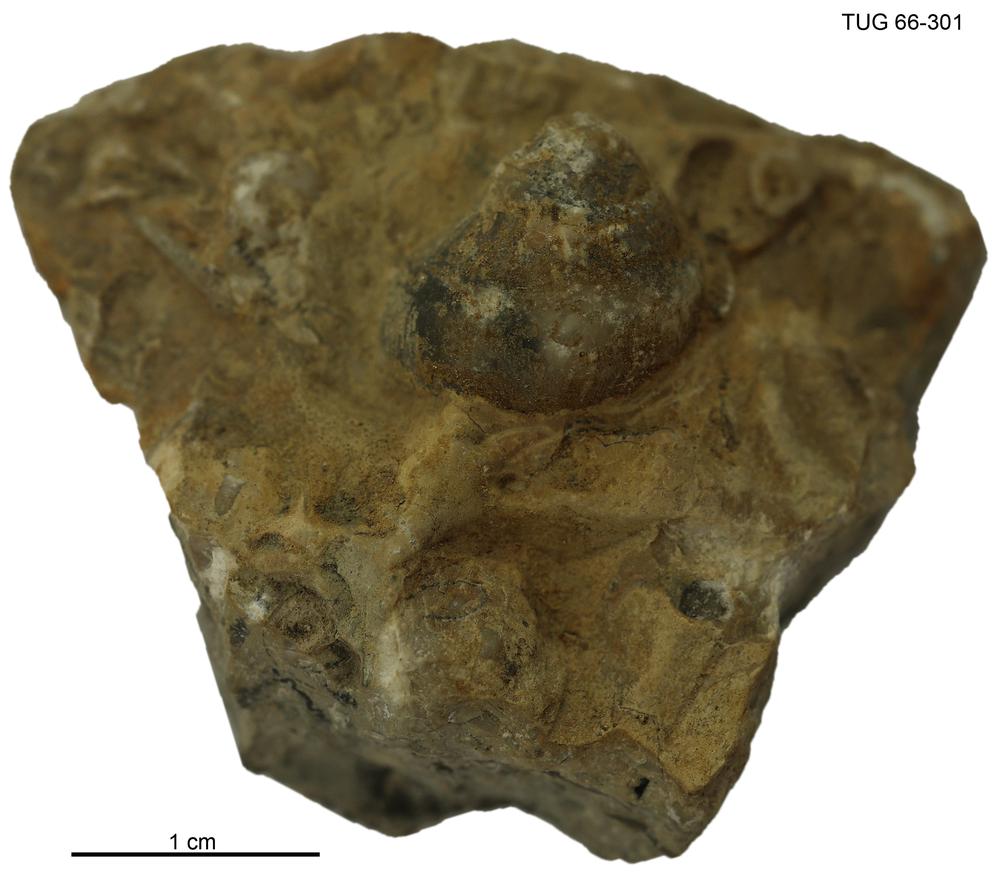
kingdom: Animalia
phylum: Mollusca
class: Gastropoda
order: Pleurotomariida
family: Phanerotrematidae
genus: Brachytomaria
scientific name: Brachytomaria nodulosa
